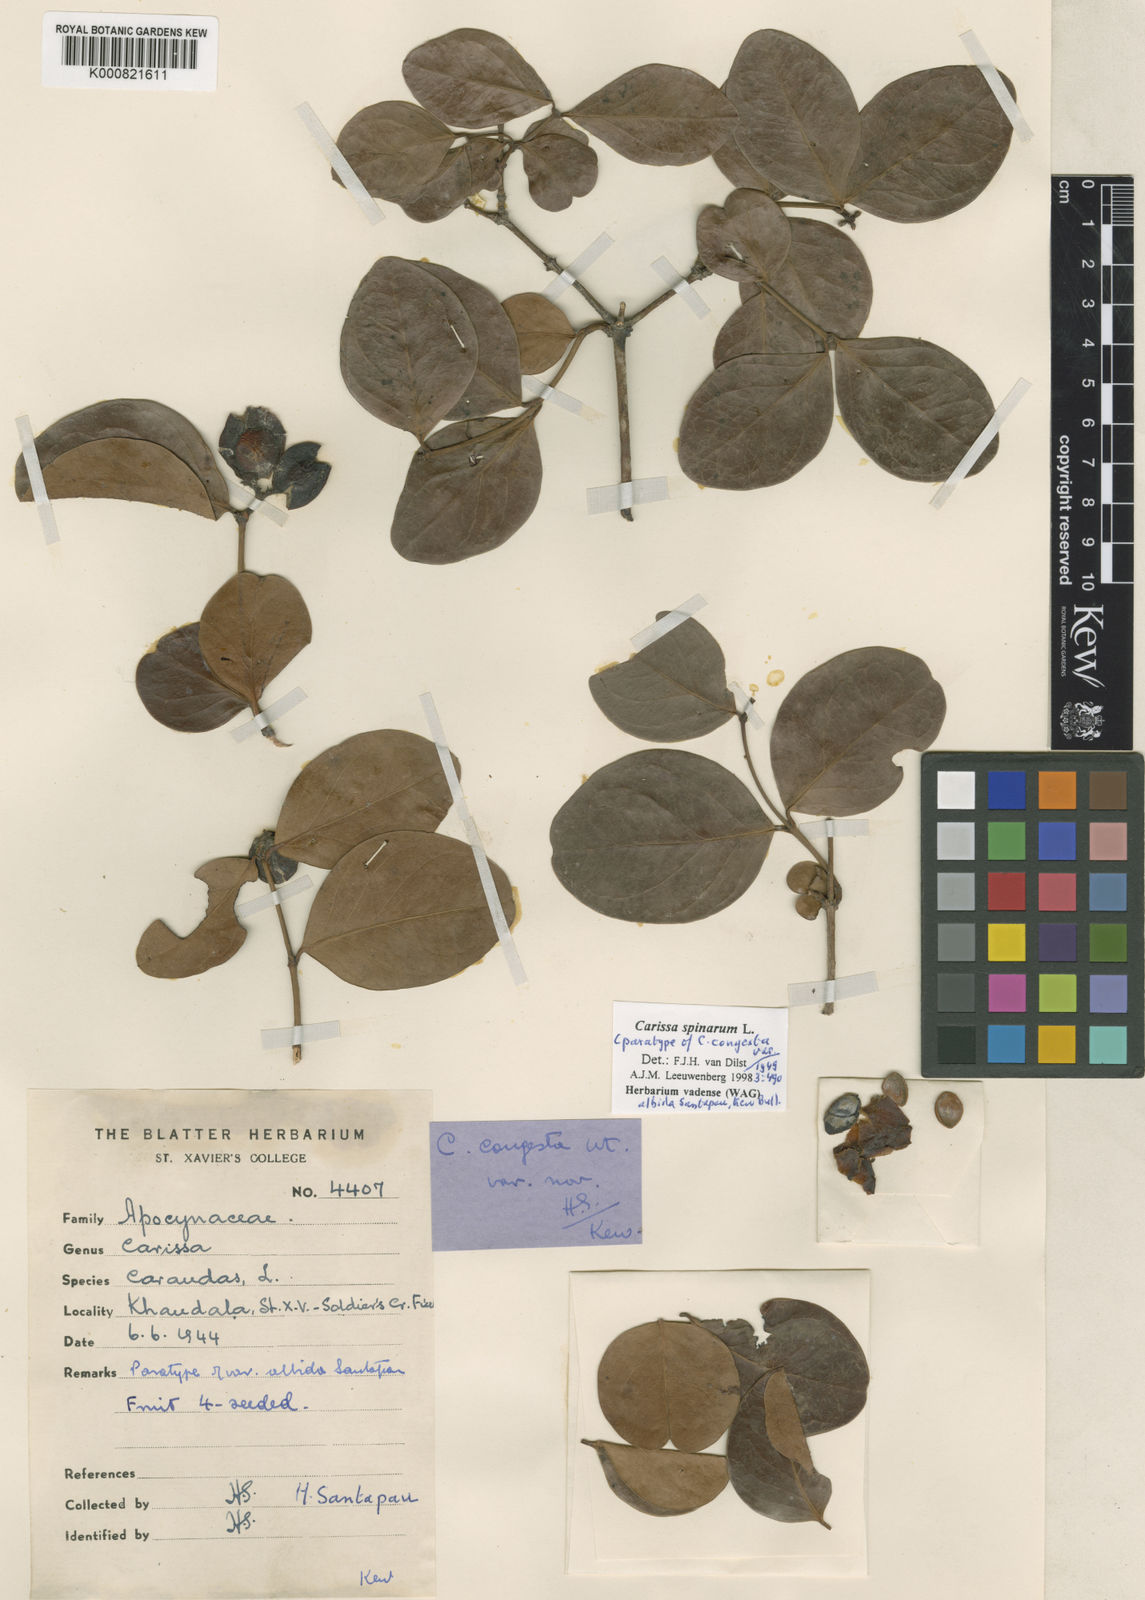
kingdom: Plantae
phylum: Tracheophyta
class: Magnoliopsida
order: Gentianales
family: Apocynaceae
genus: Carissa
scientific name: Carissa spinarum
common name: Egyptian carissa
